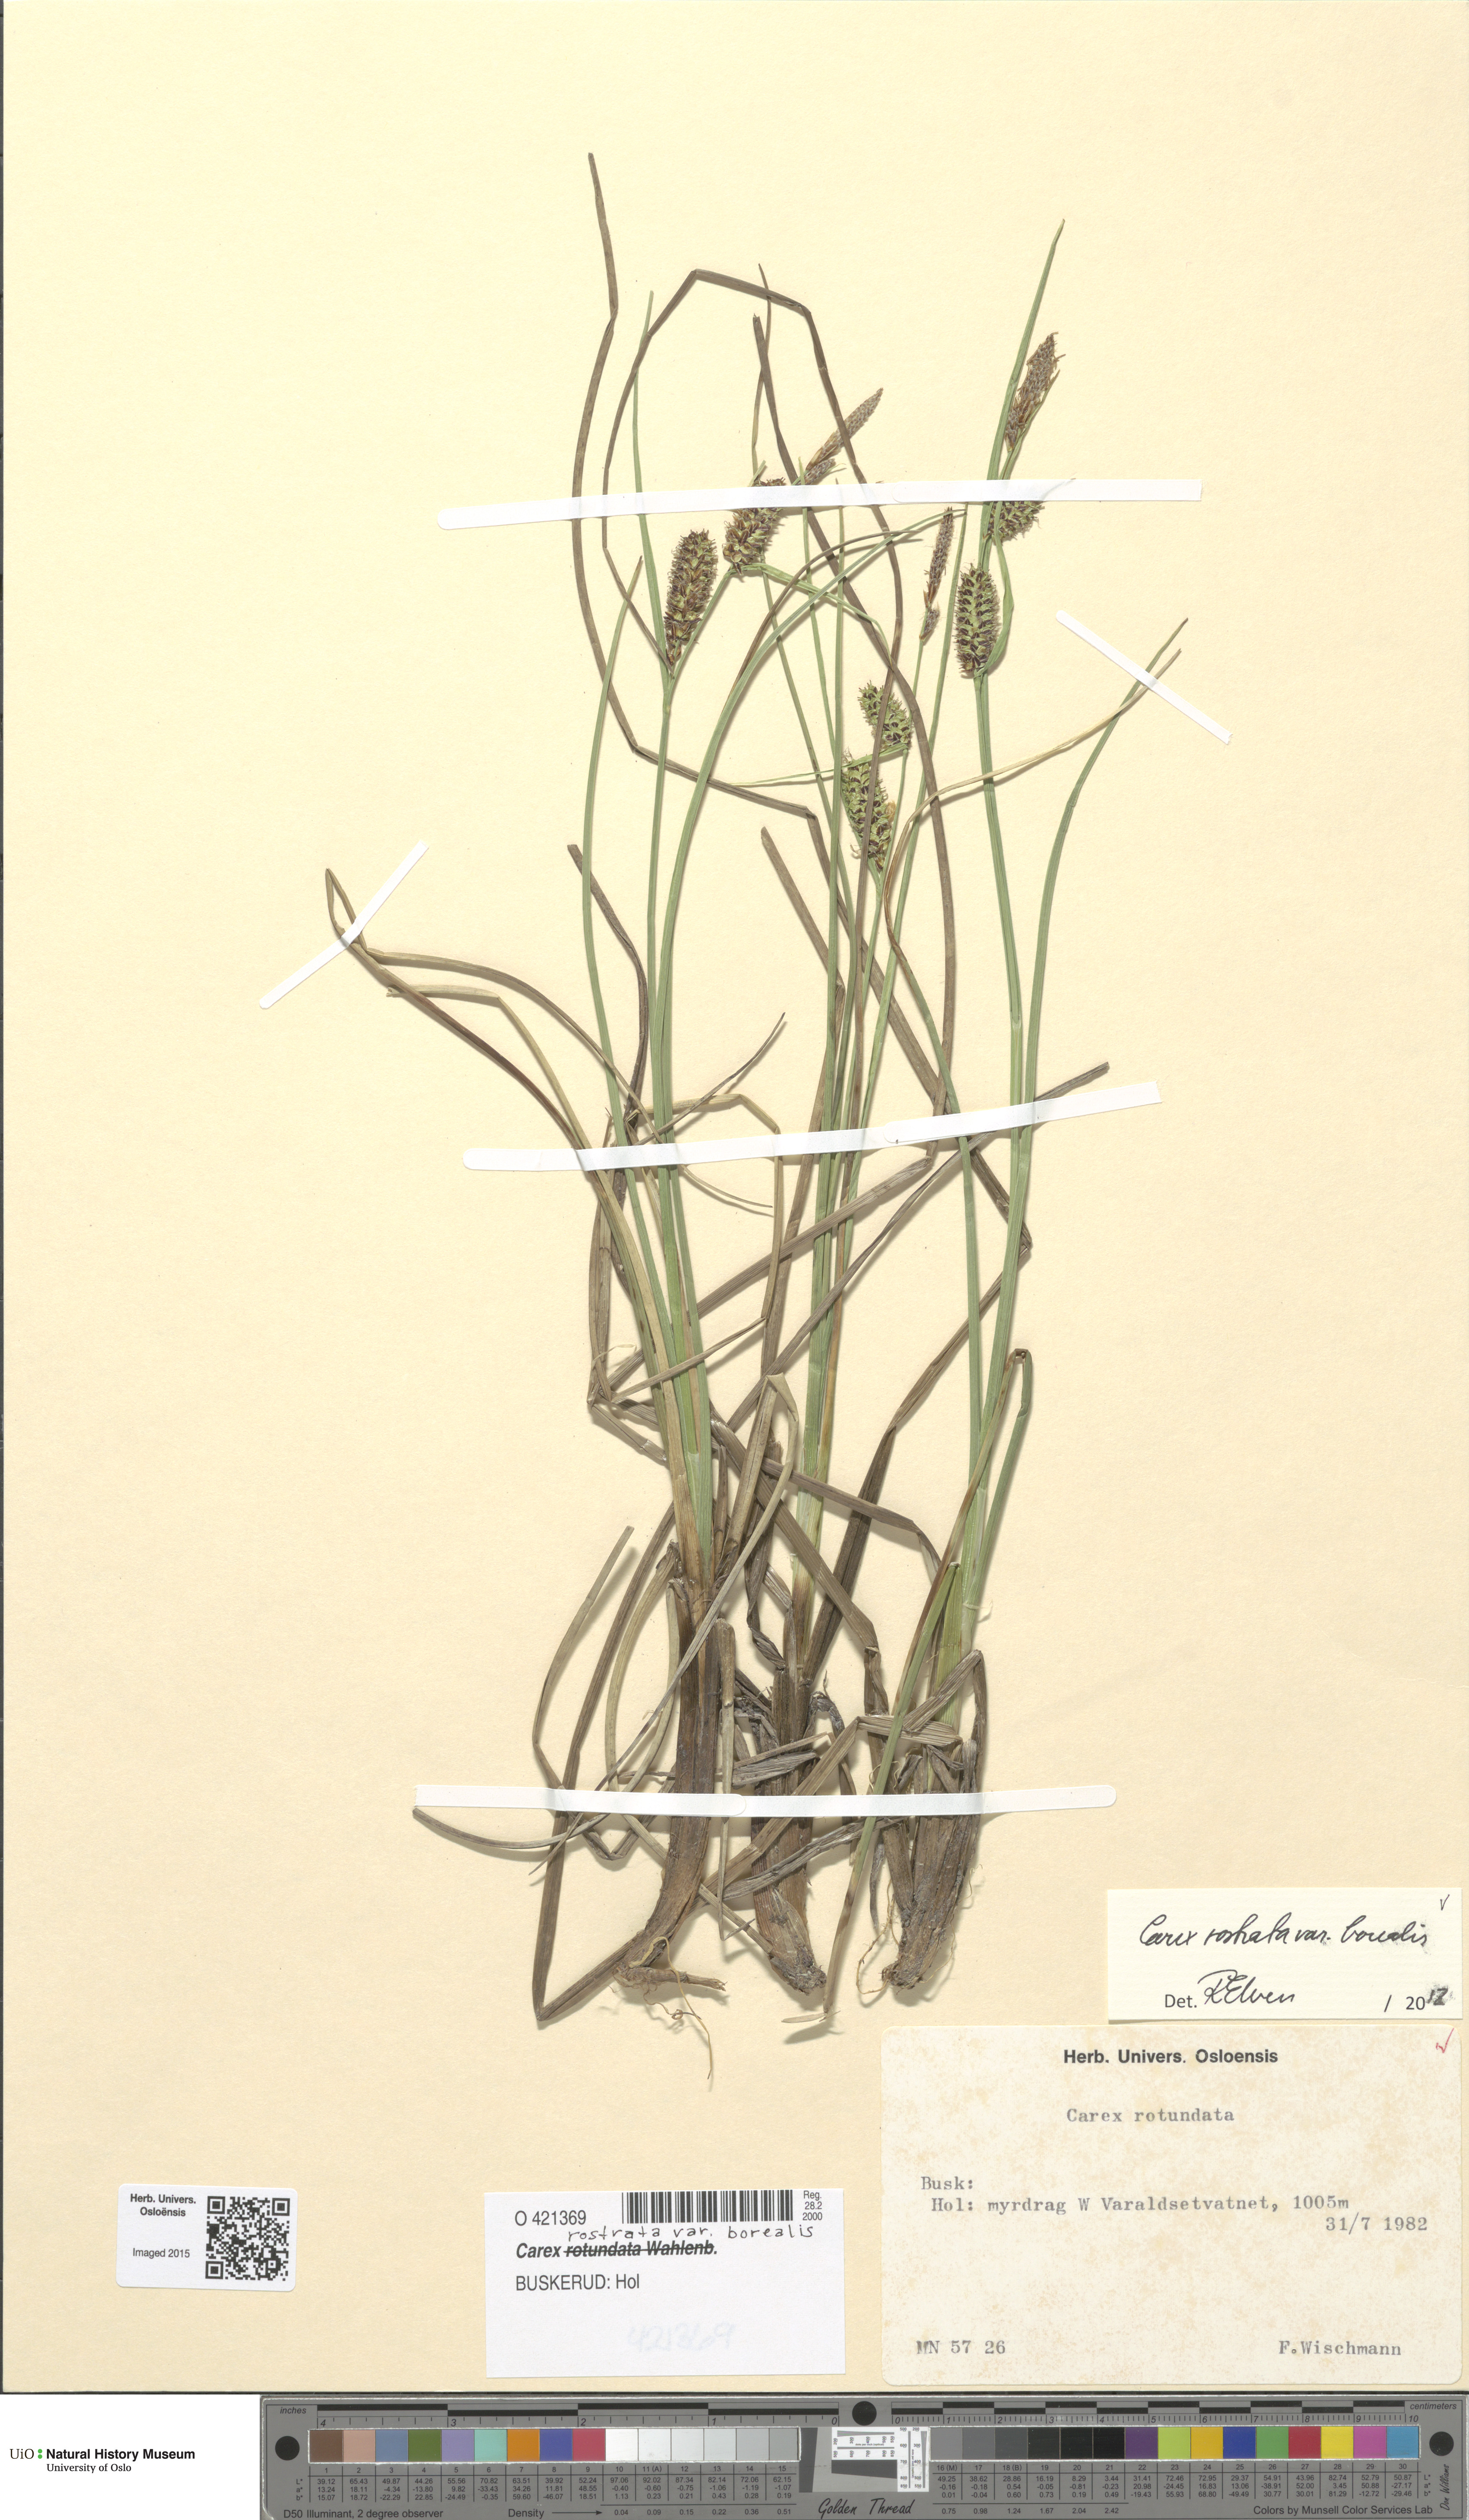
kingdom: Plantae
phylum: Tracheophyta
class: Liliopsida
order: Poales
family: Cyperaceae
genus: Carex
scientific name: Carex saamica
